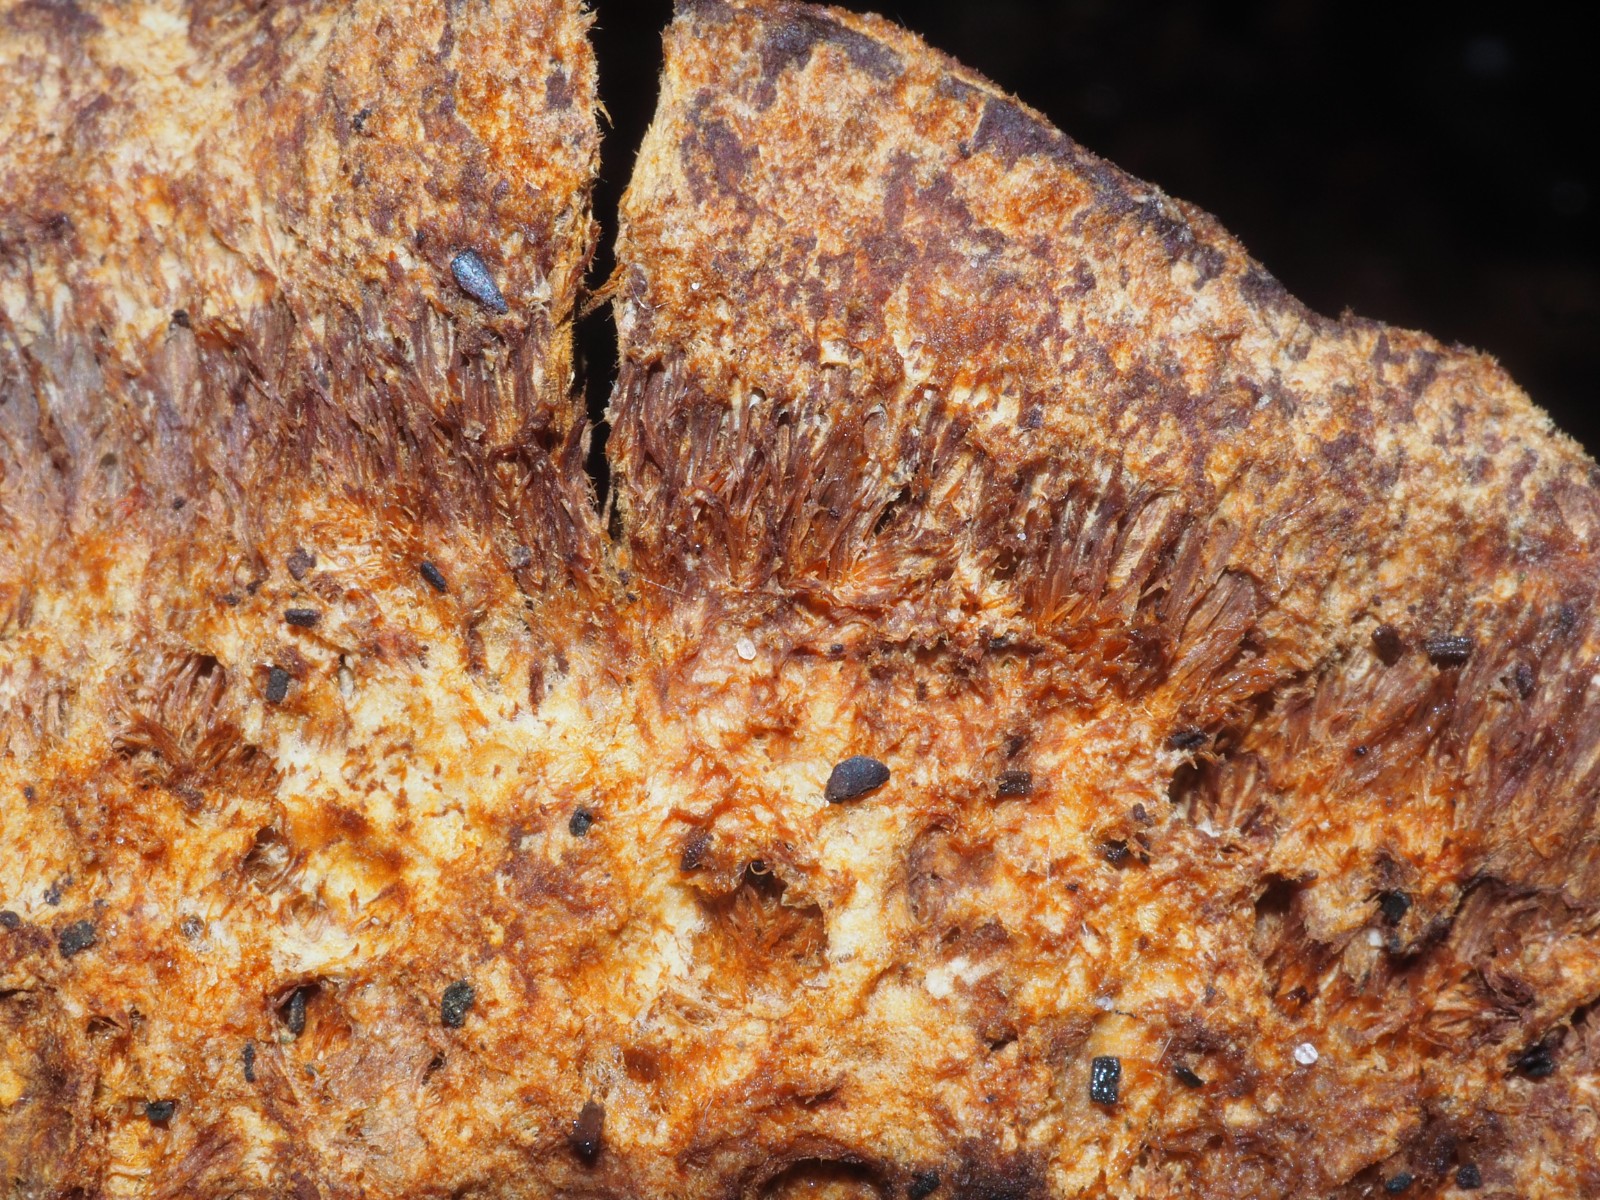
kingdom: Fungi
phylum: Basidiomycota
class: Agaricomycetes
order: Hymenochaetales
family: Hymenochaetaceae
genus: Inonotus
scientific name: Inonotus cuticularis
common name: kroghåret spejlporesvamp
